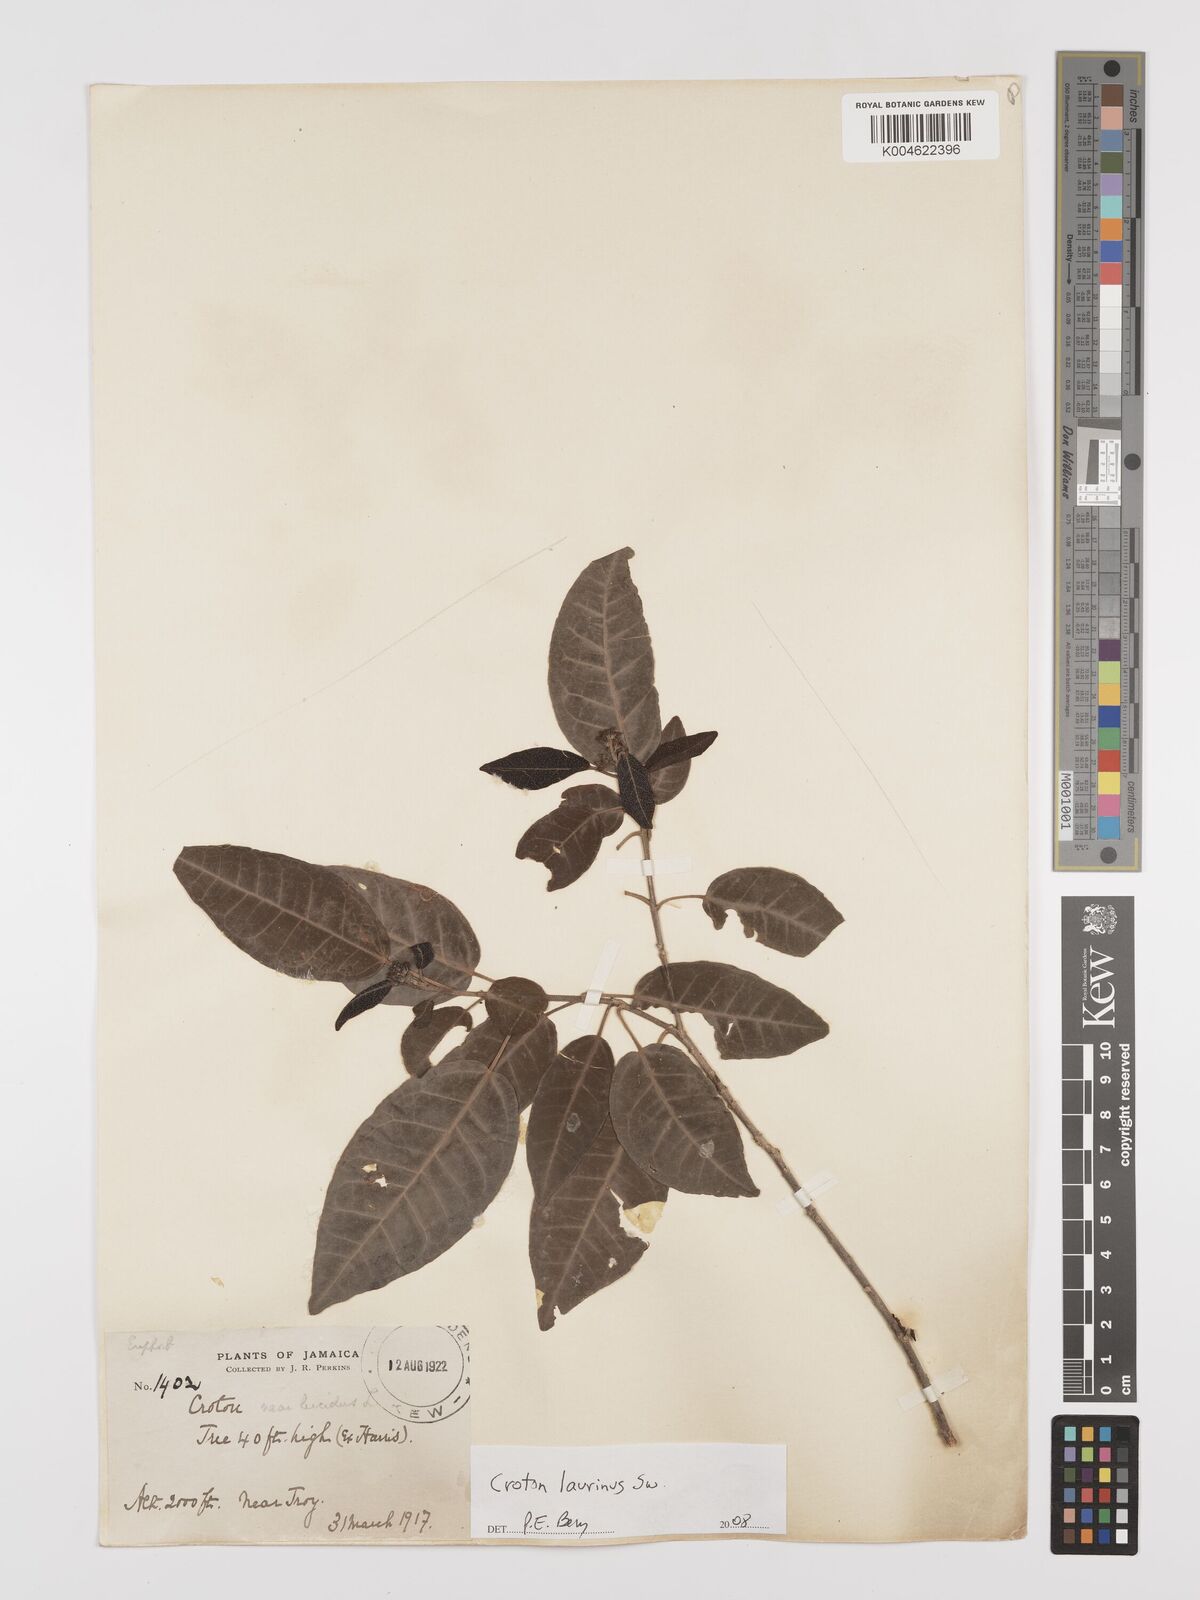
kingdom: Plantae
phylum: Tracheophyta
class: Magnoliopsida
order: Malpighiales
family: Euphorbiaceae
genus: Croton
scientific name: Croton laurinus
